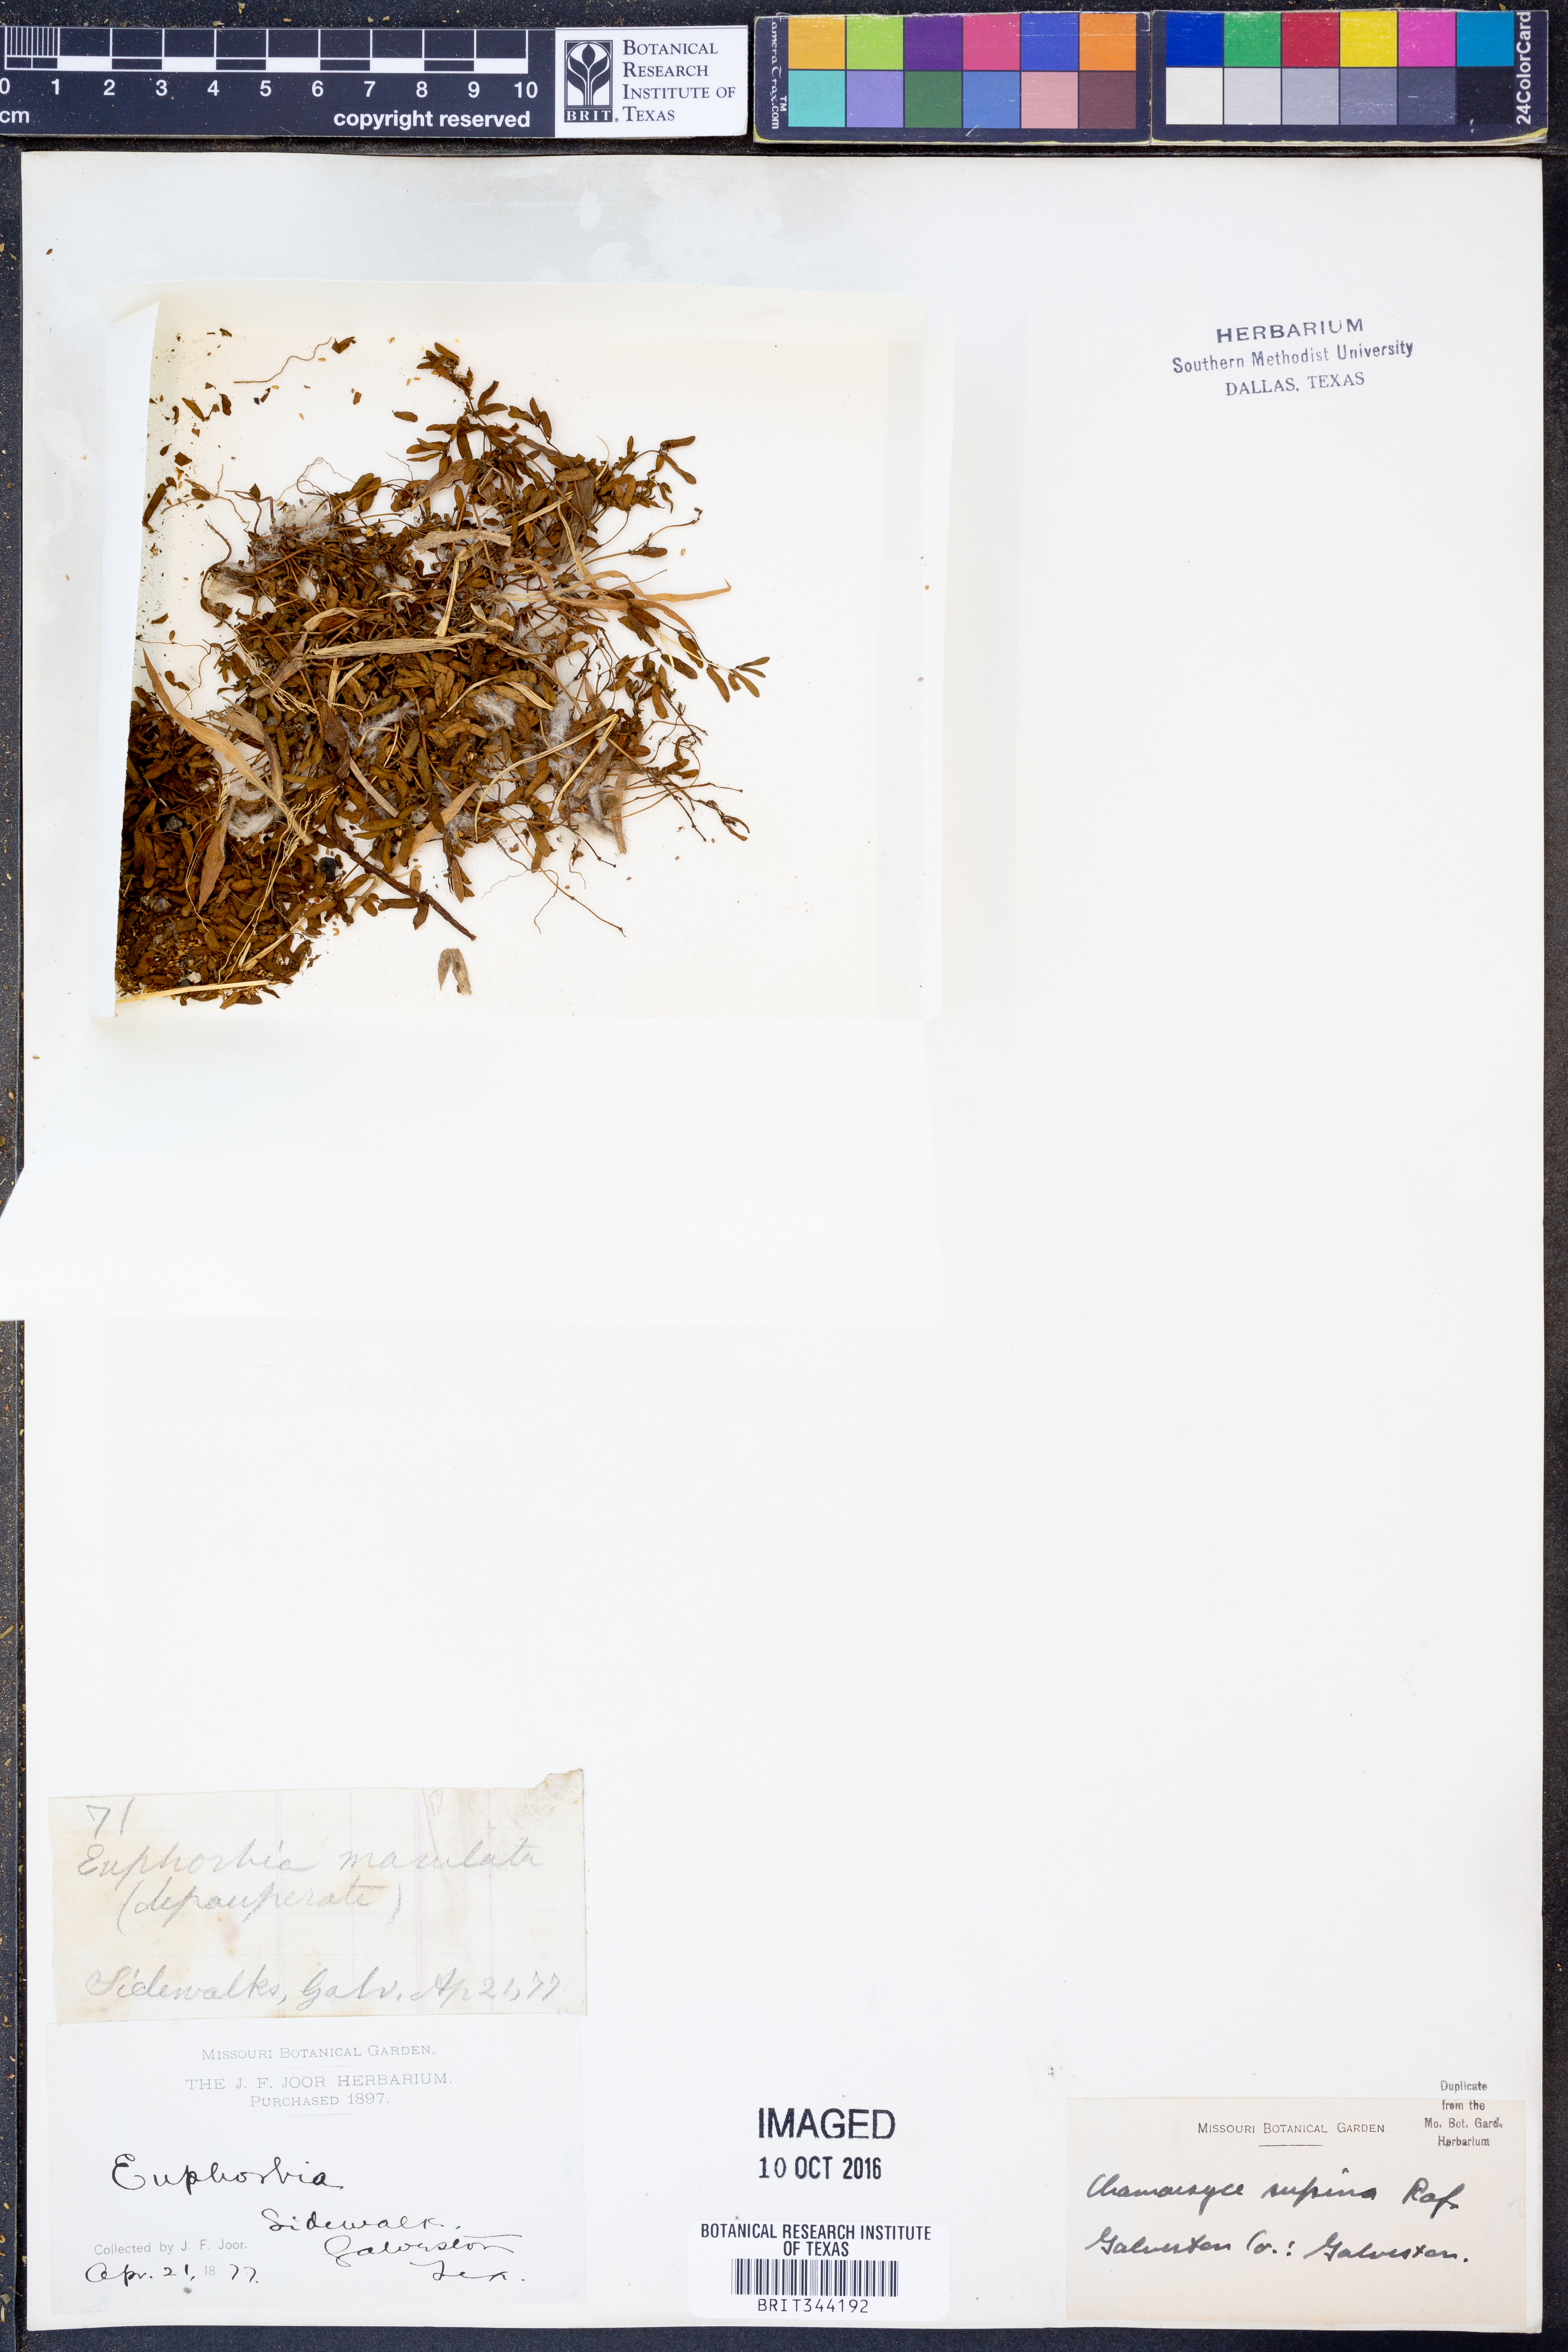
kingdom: Plantae
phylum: Tracheophyta
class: Magnoliopsida
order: Malpighiales
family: Euphorbiaceae
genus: Euphorbia
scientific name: Euphorbia maculata
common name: Spotted spurge
